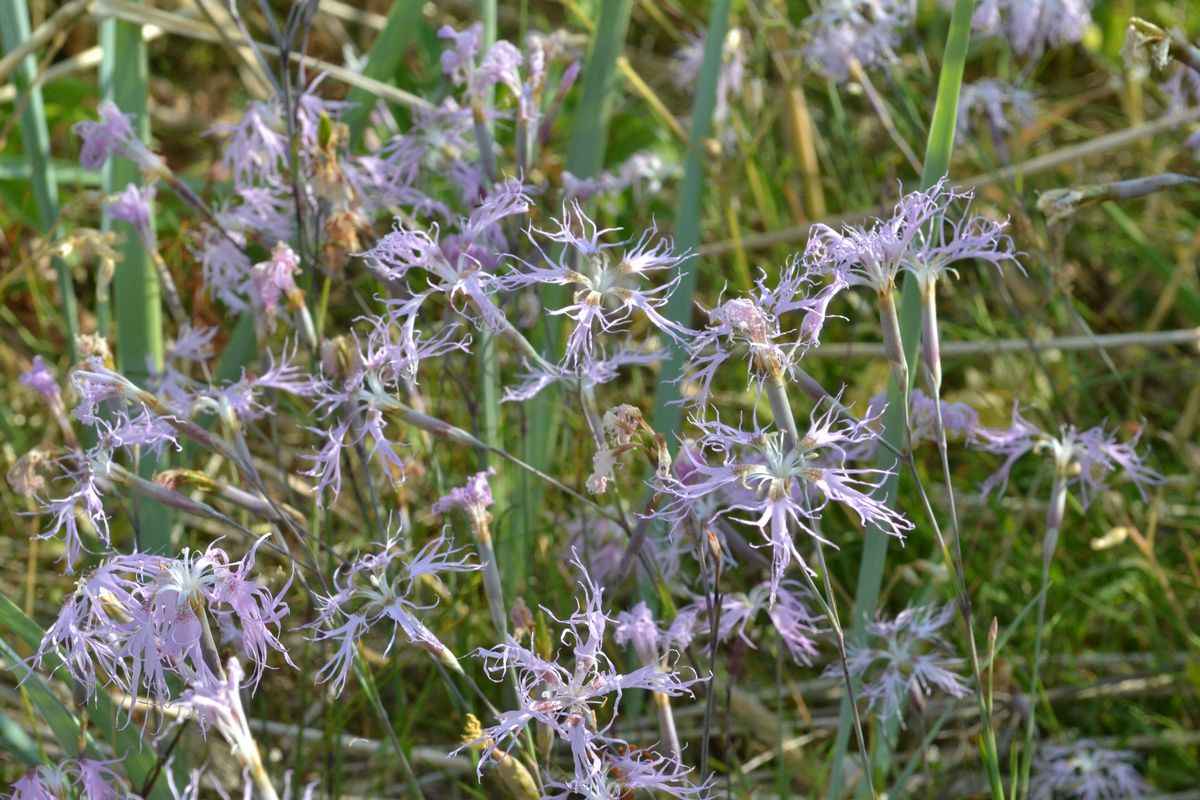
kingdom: Plantae
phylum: Tracheophyta
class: Magnoliopsida
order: Caryophyllales
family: Caryophyllaceae
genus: Dianthus
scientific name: Dianthus superbus
